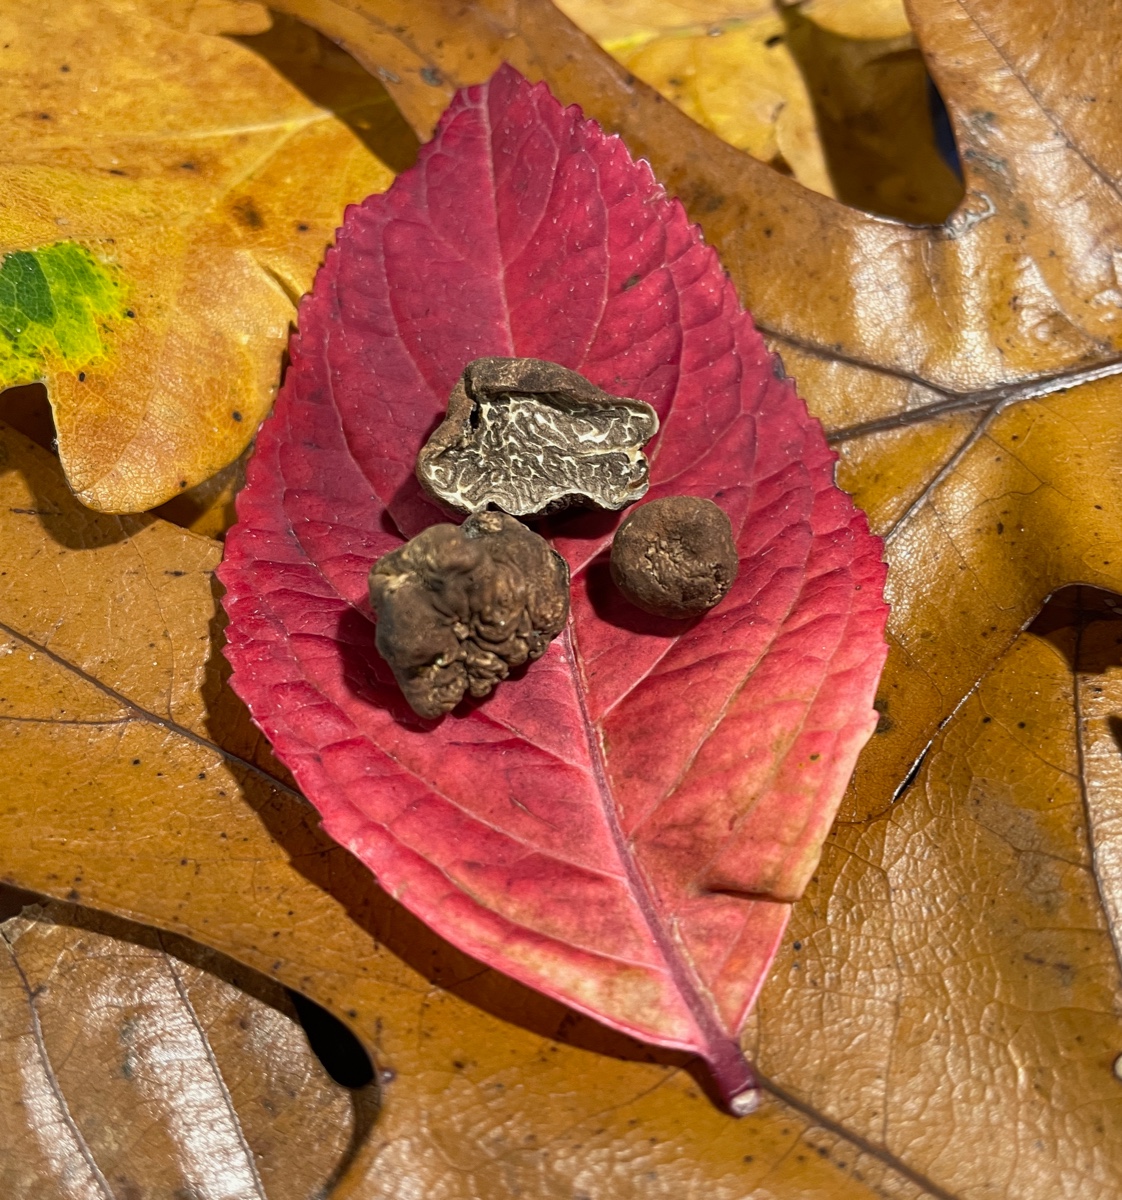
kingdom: Fungi
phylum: Ascomycota
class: Pezizomycetes
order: Pezizales
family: Tuberaceae
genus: Tuber
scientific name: Tuber rufum
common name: rødbrun trøffel
